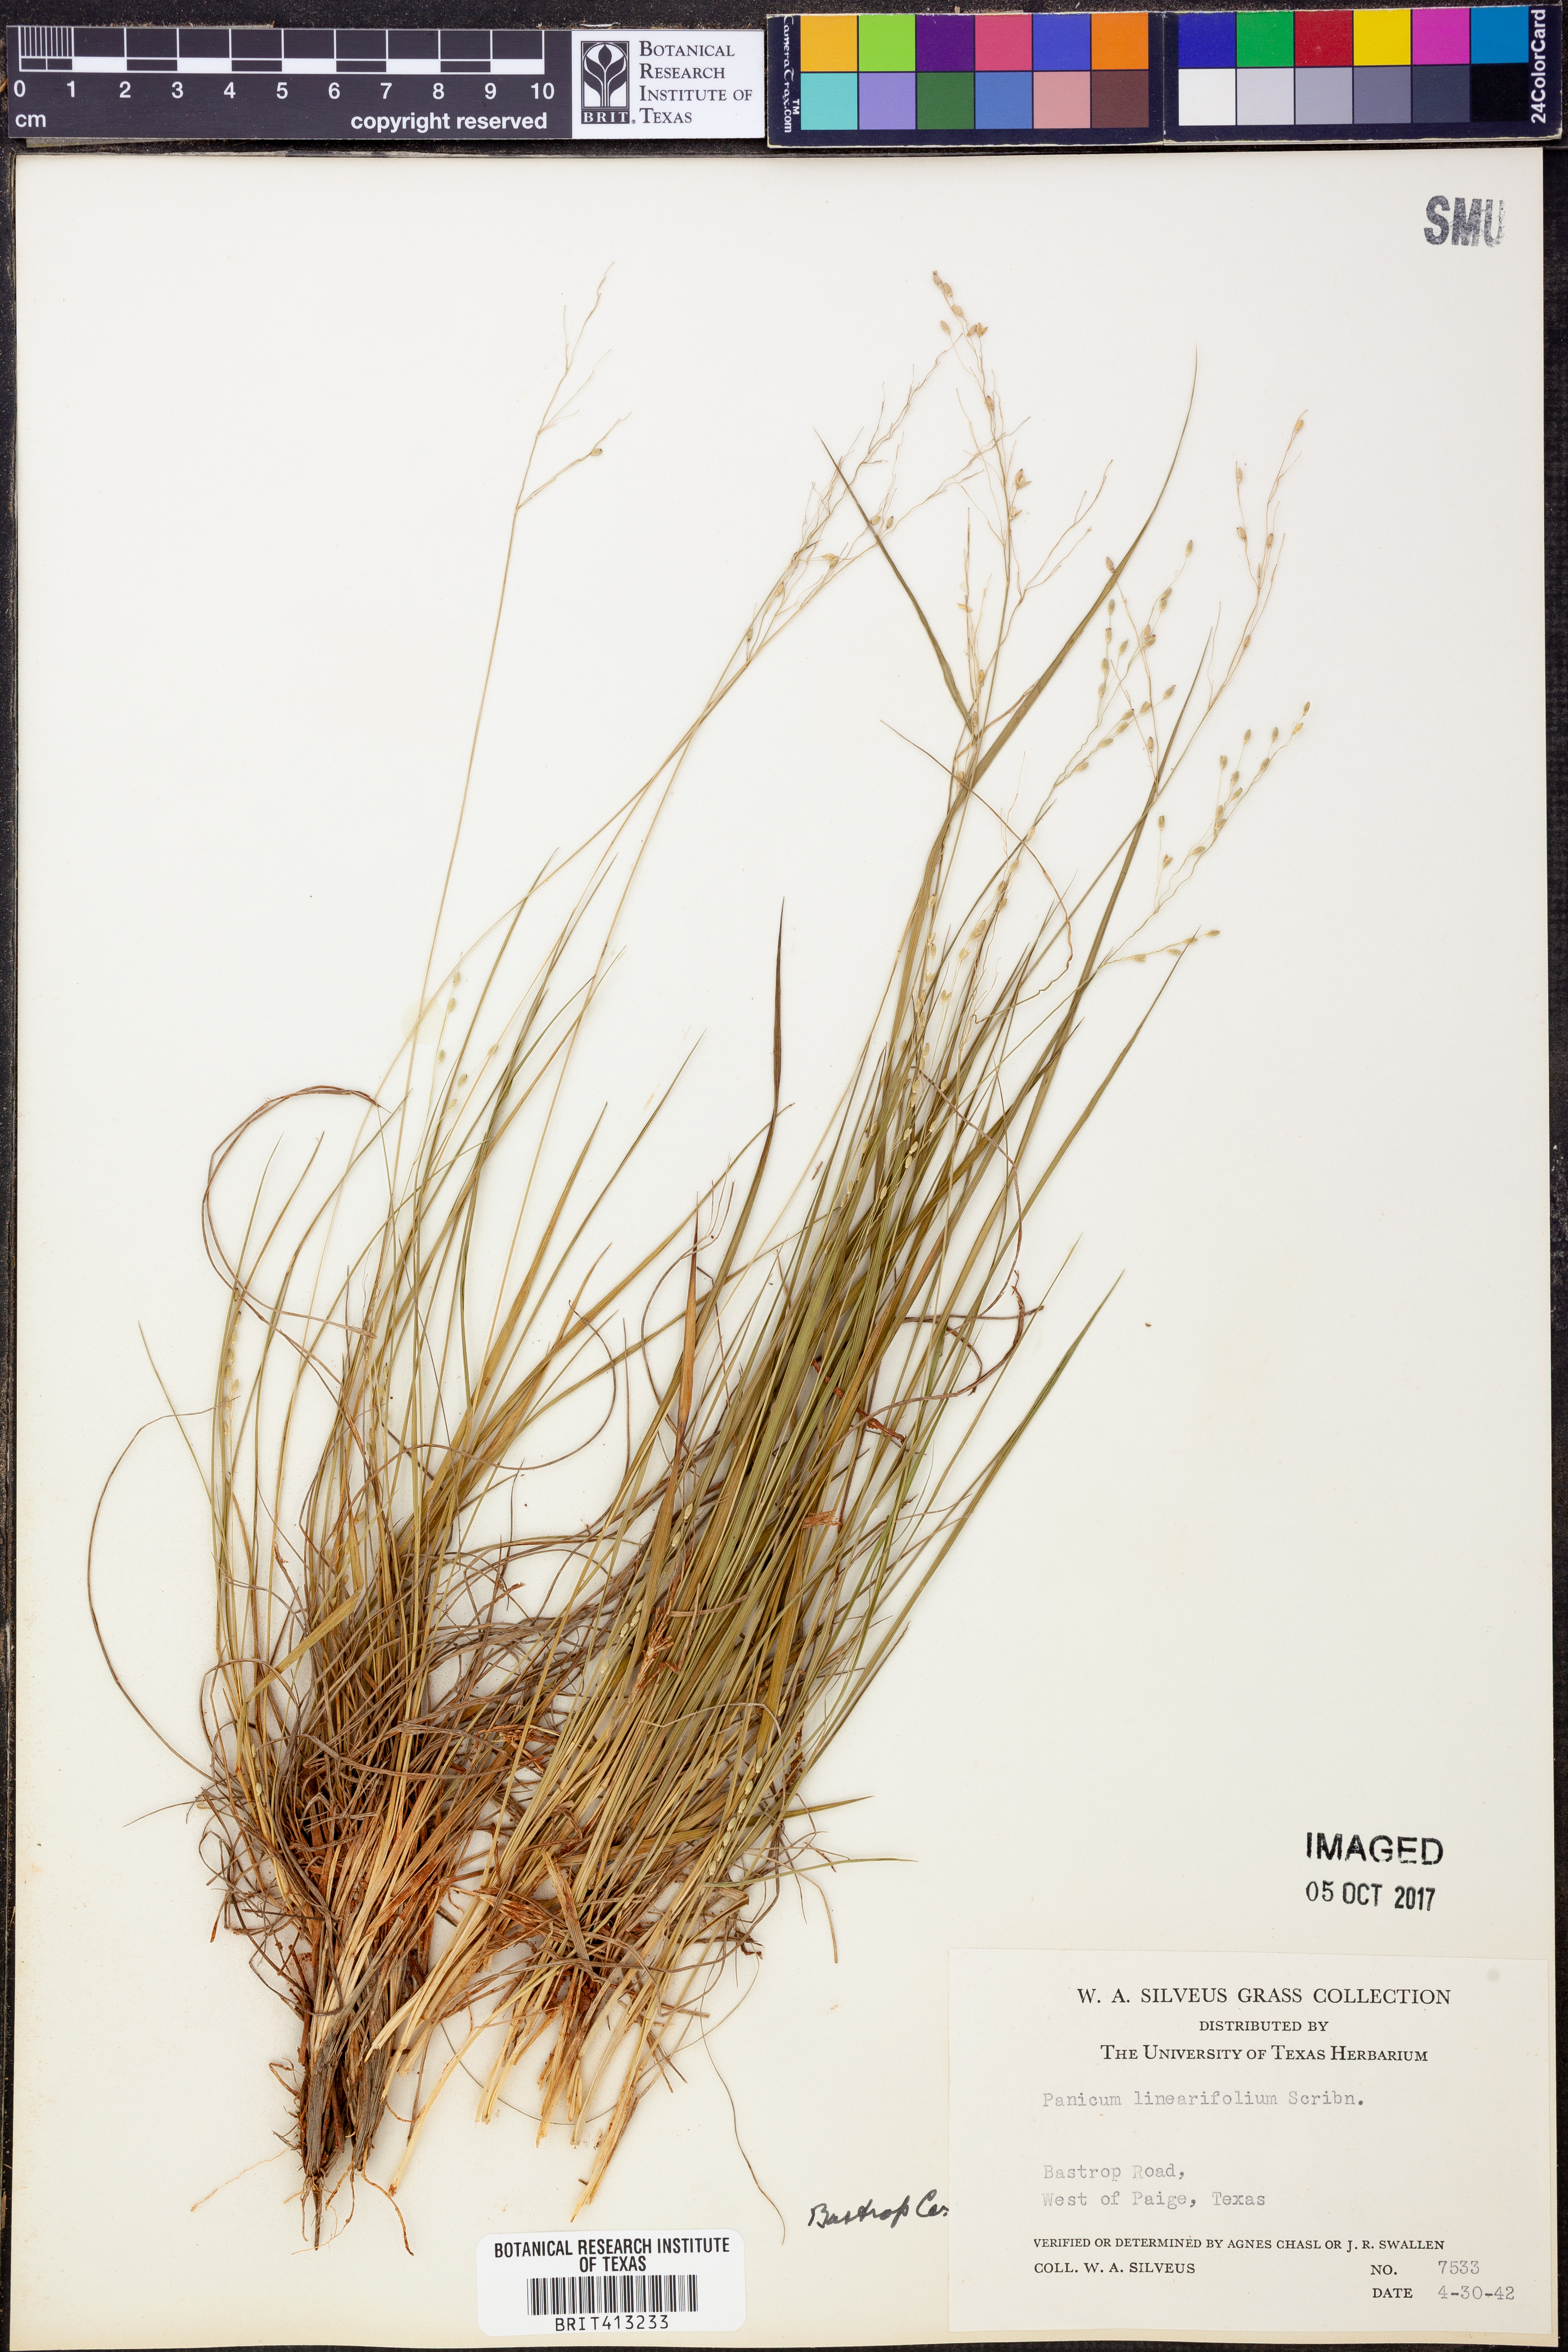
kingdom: Plantae
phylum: Tracheophyta
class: Liliopsida
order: Poales
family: Poaceae
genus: Dichanthelium
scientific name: Dichanthelium linearifolium
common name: Linear-leaved panicgrass
